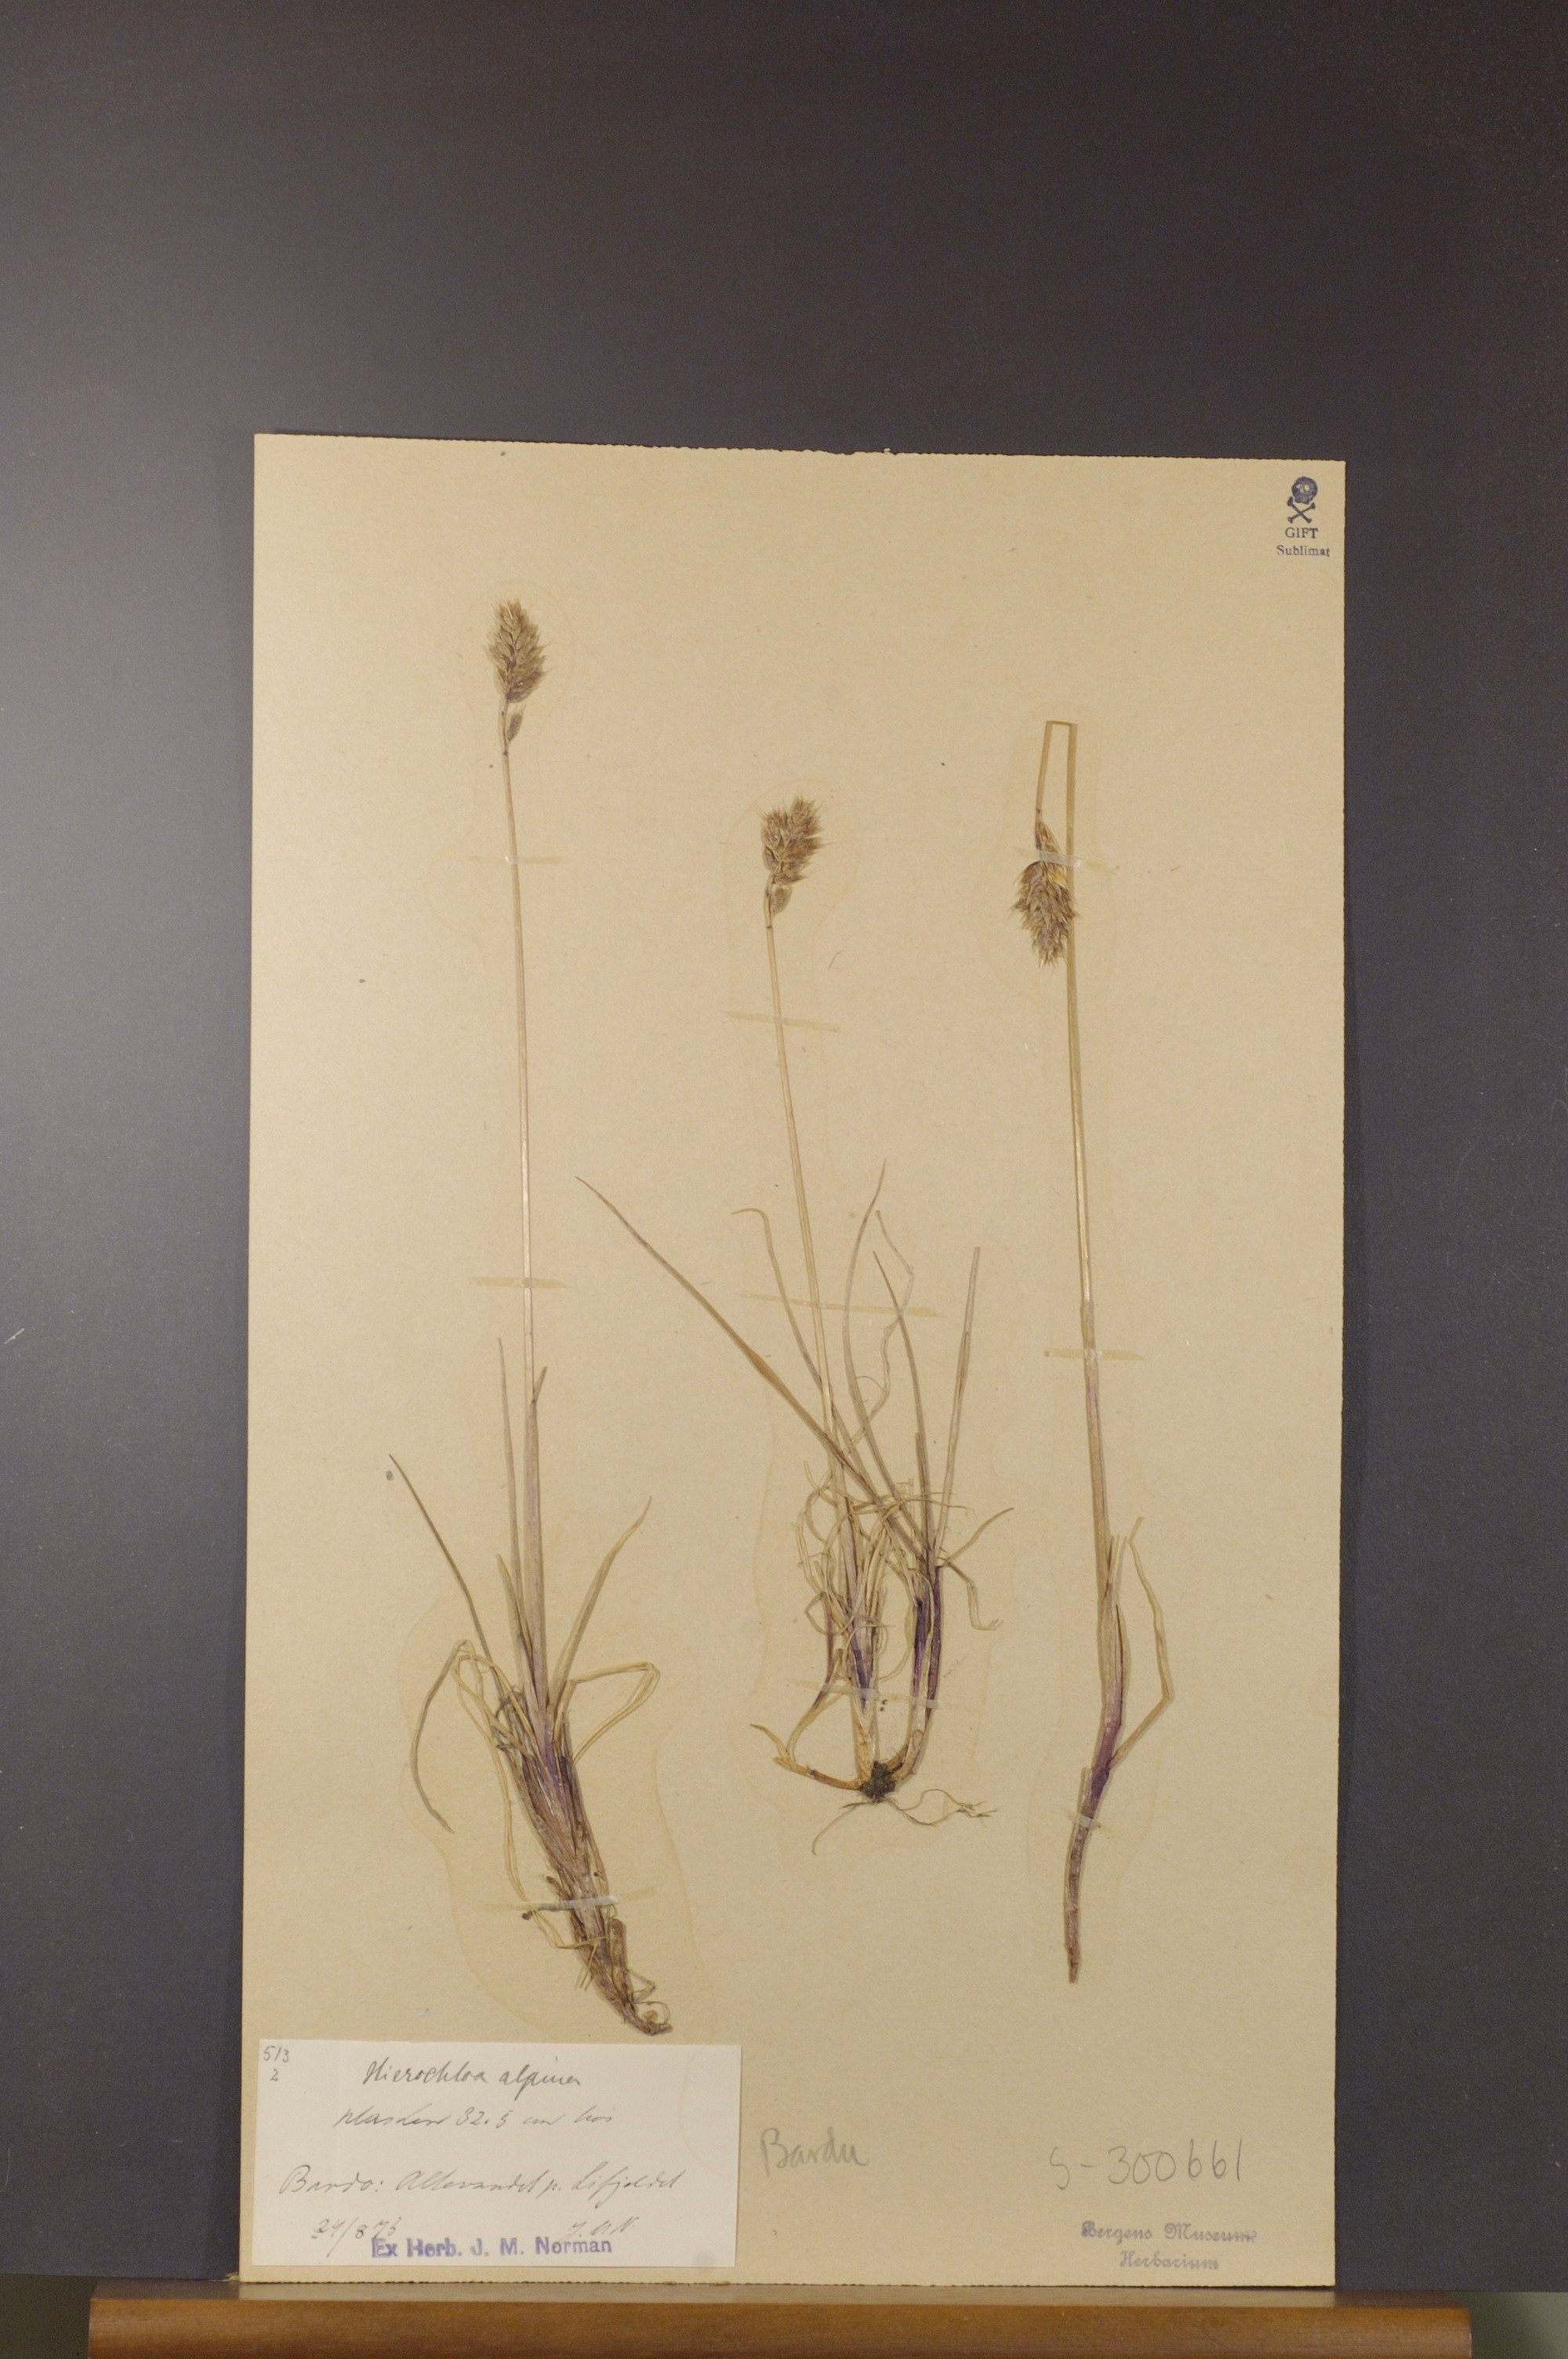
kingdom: Plantae
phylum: Tracheophyta
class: Liliopsida
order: Poales
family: Poaceae
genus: Anthoxanthum
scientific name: Anthoxanthum monticola
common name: Alpine sweetgrass
